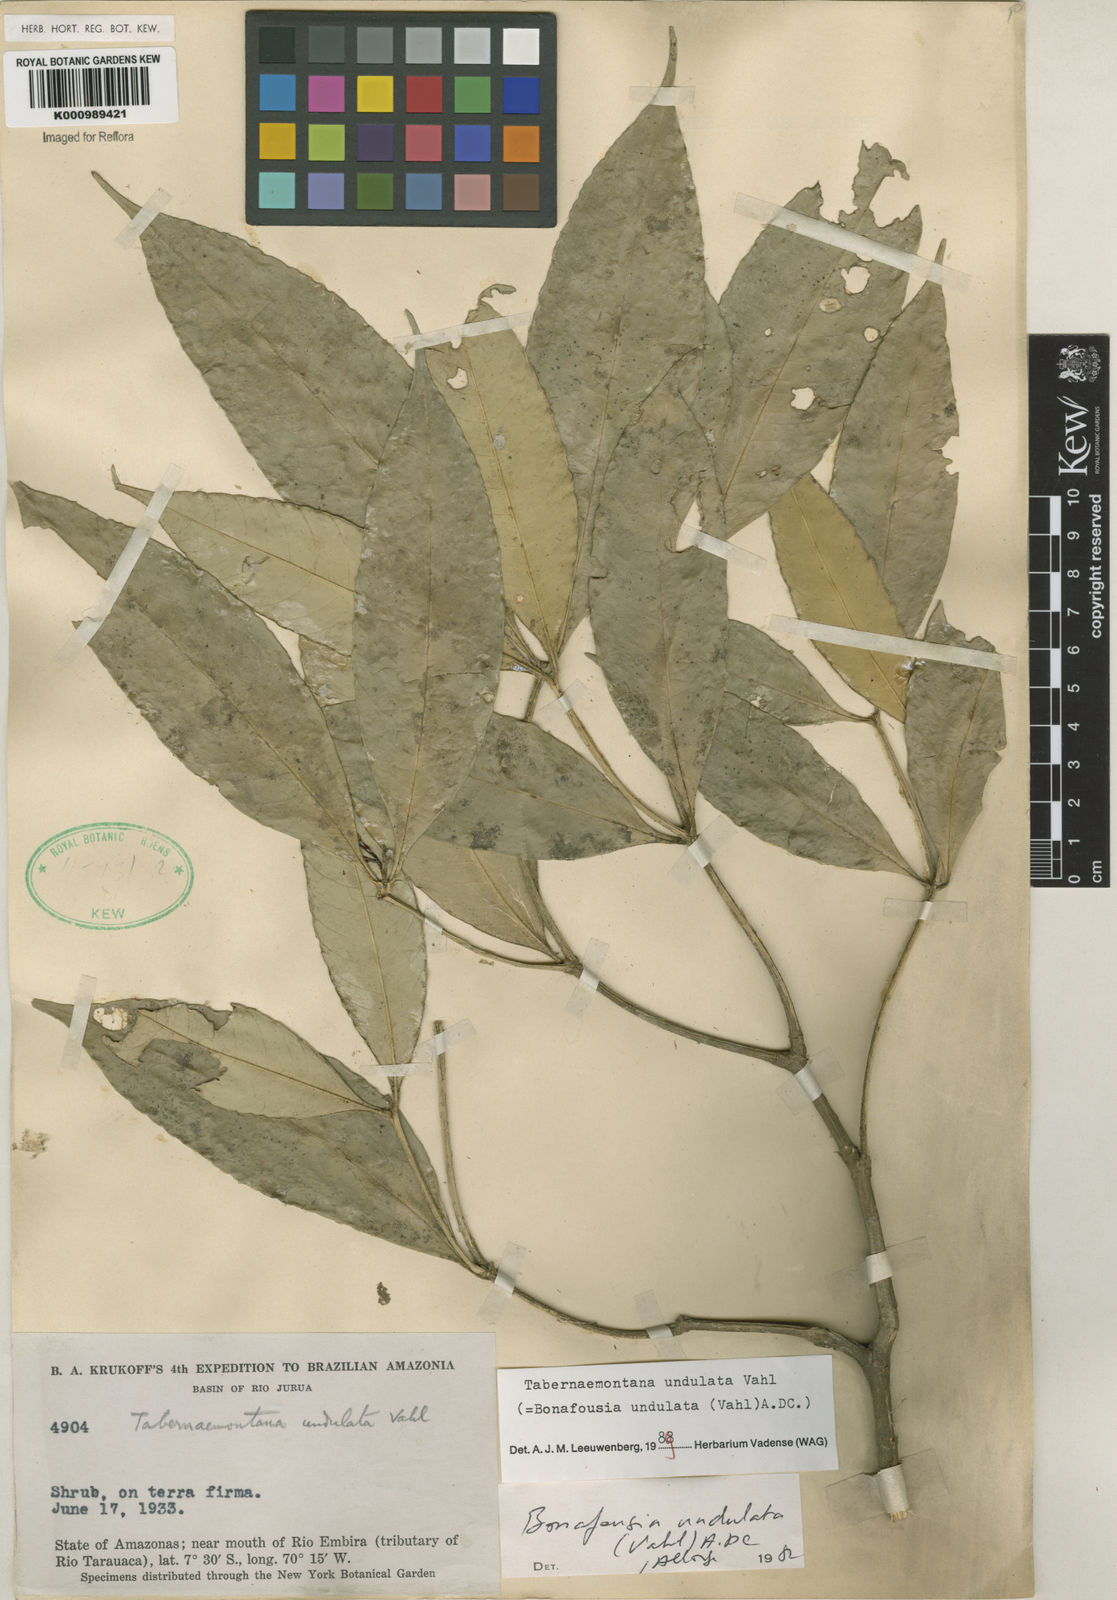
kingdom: Plantae
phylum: Tracheophyta
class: Magnoliopsida
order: Gentianales
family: Apocynaceae
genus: Tabernaemontana
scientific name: Tabernaemontana undulata
